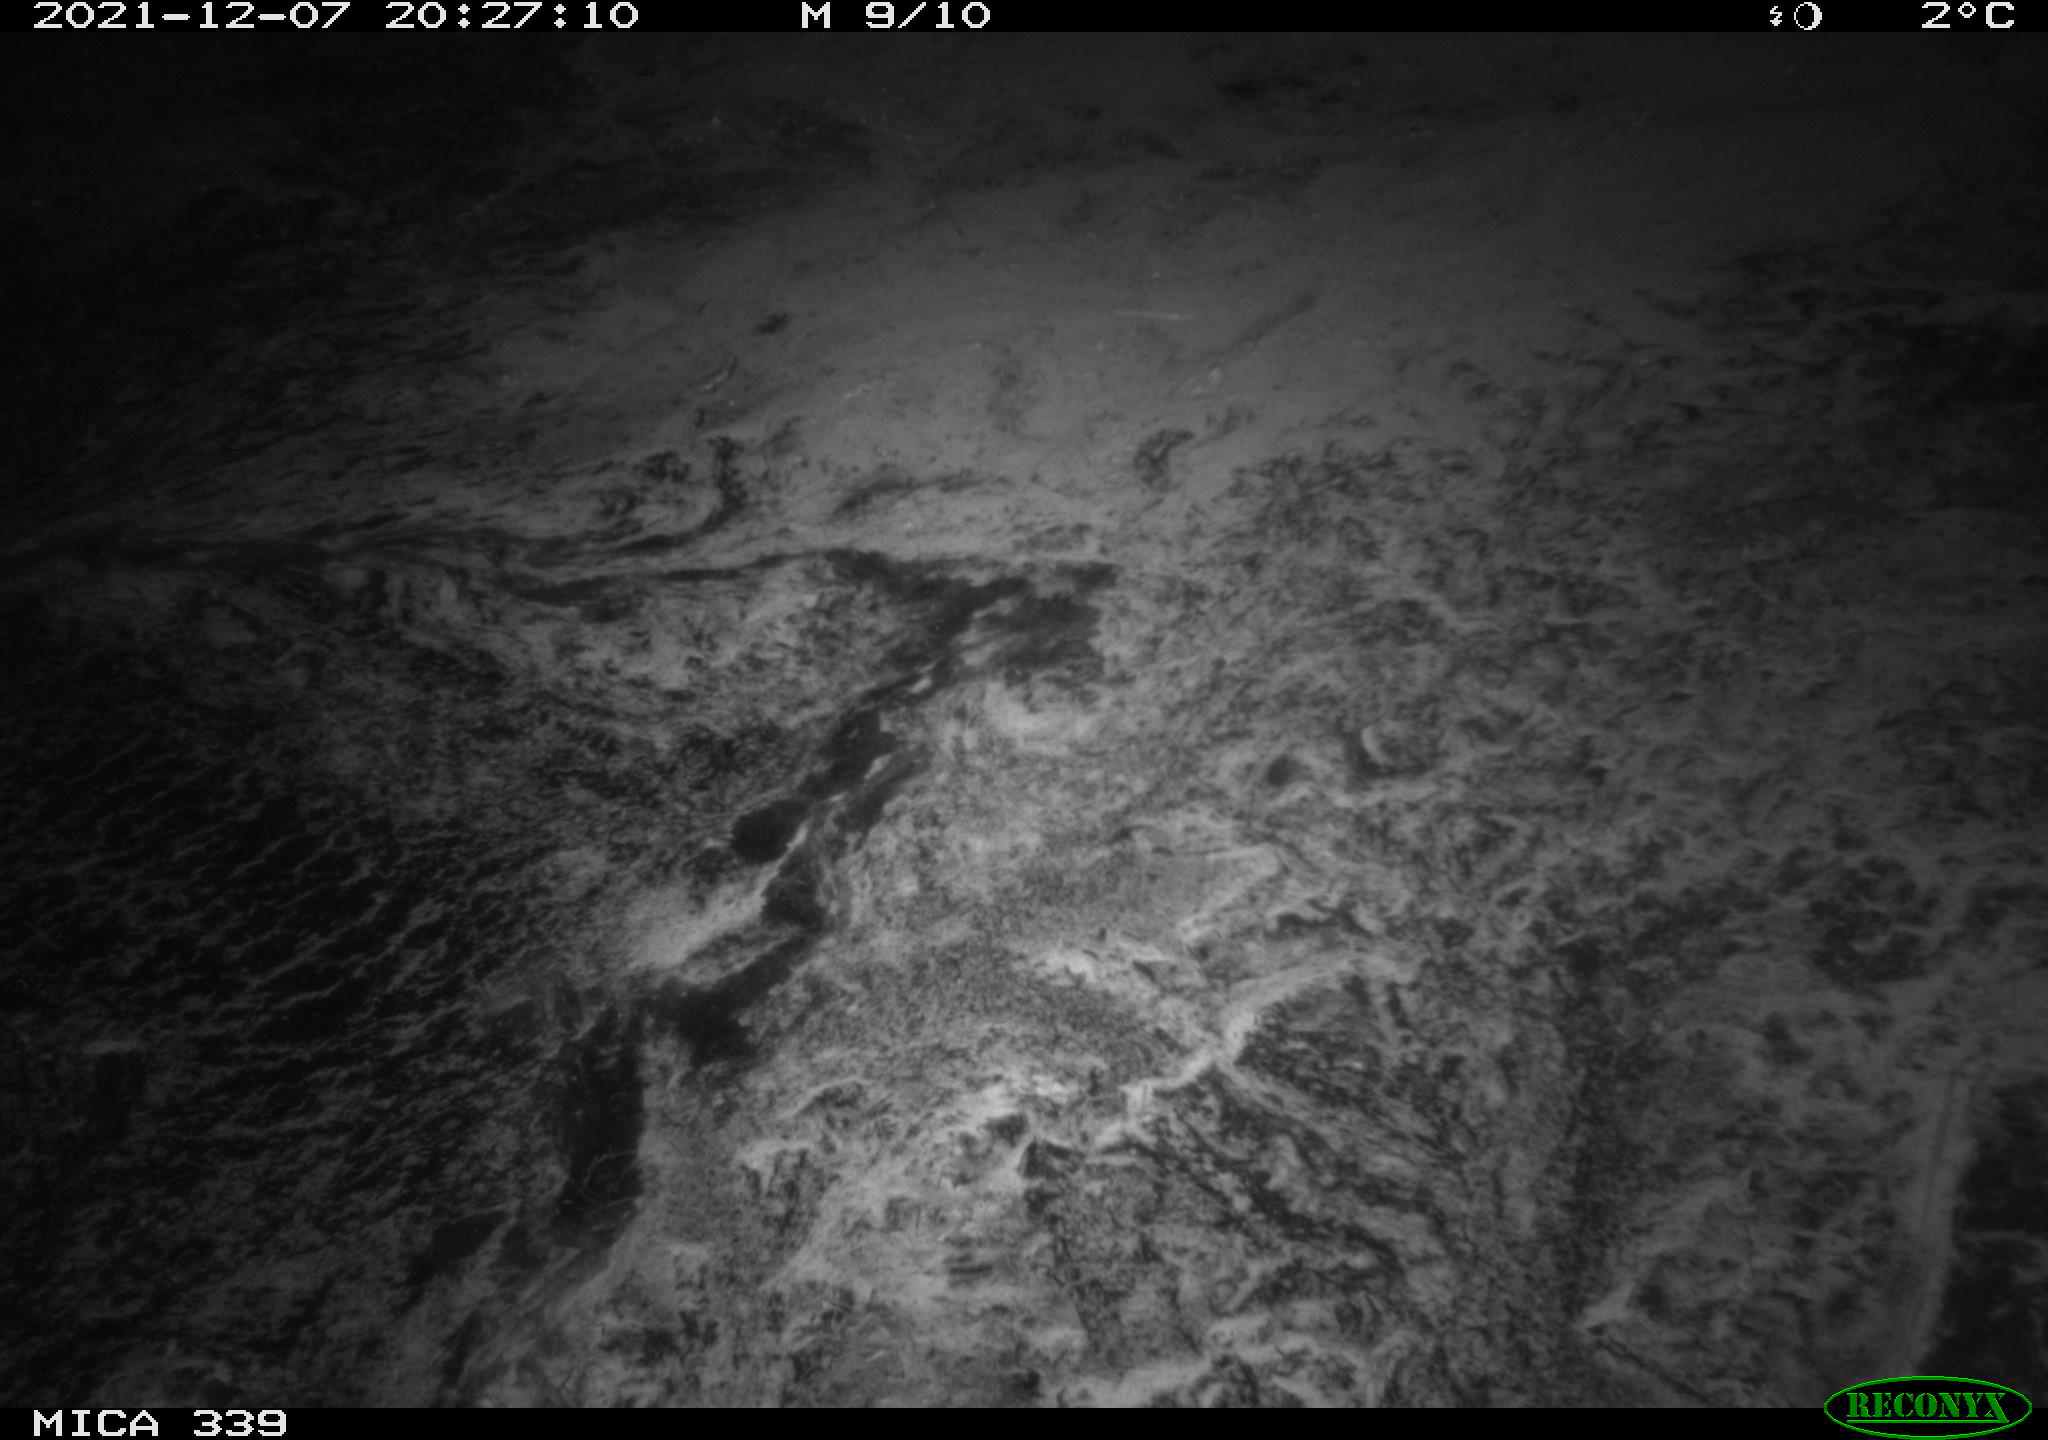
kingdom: Animalia
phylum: Chordata
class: Aves
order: Gruiformes
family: Rallidae
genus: Gallinula
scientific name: Gallinula chloropus
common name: Common moorhen
